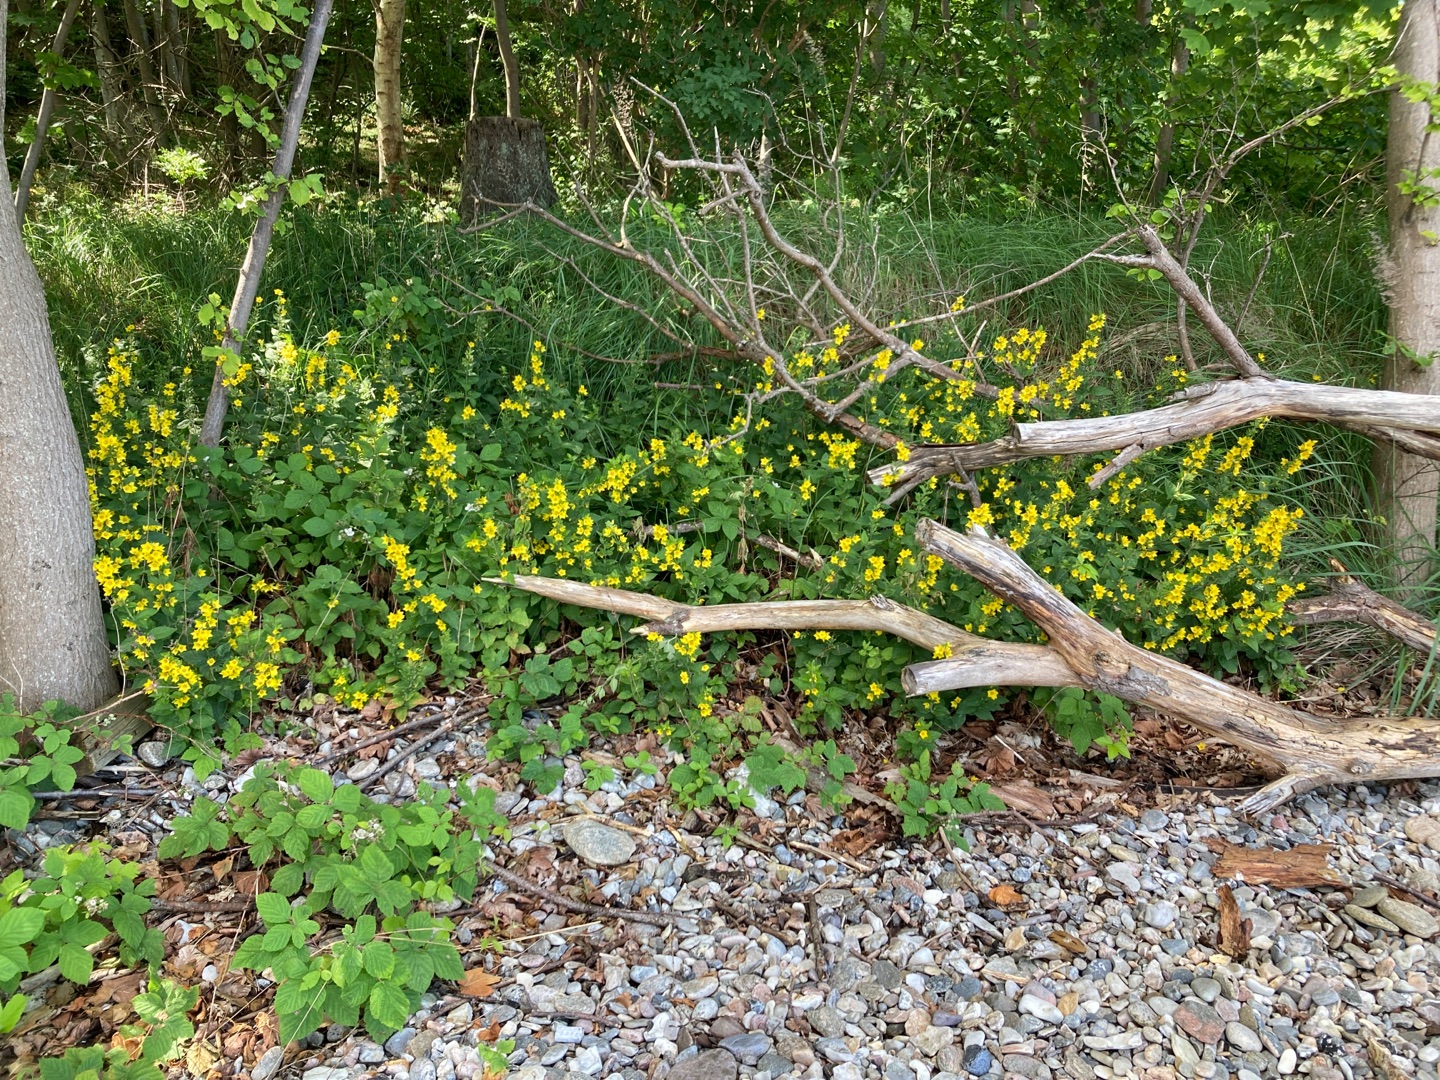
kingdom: Plantae
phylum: Tracheophyta
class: Magnoliopsida
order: Ericales
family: Primulaceae
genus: Lysimachia
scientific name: Lysimachia punctata
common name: Prikbladet fredløs
